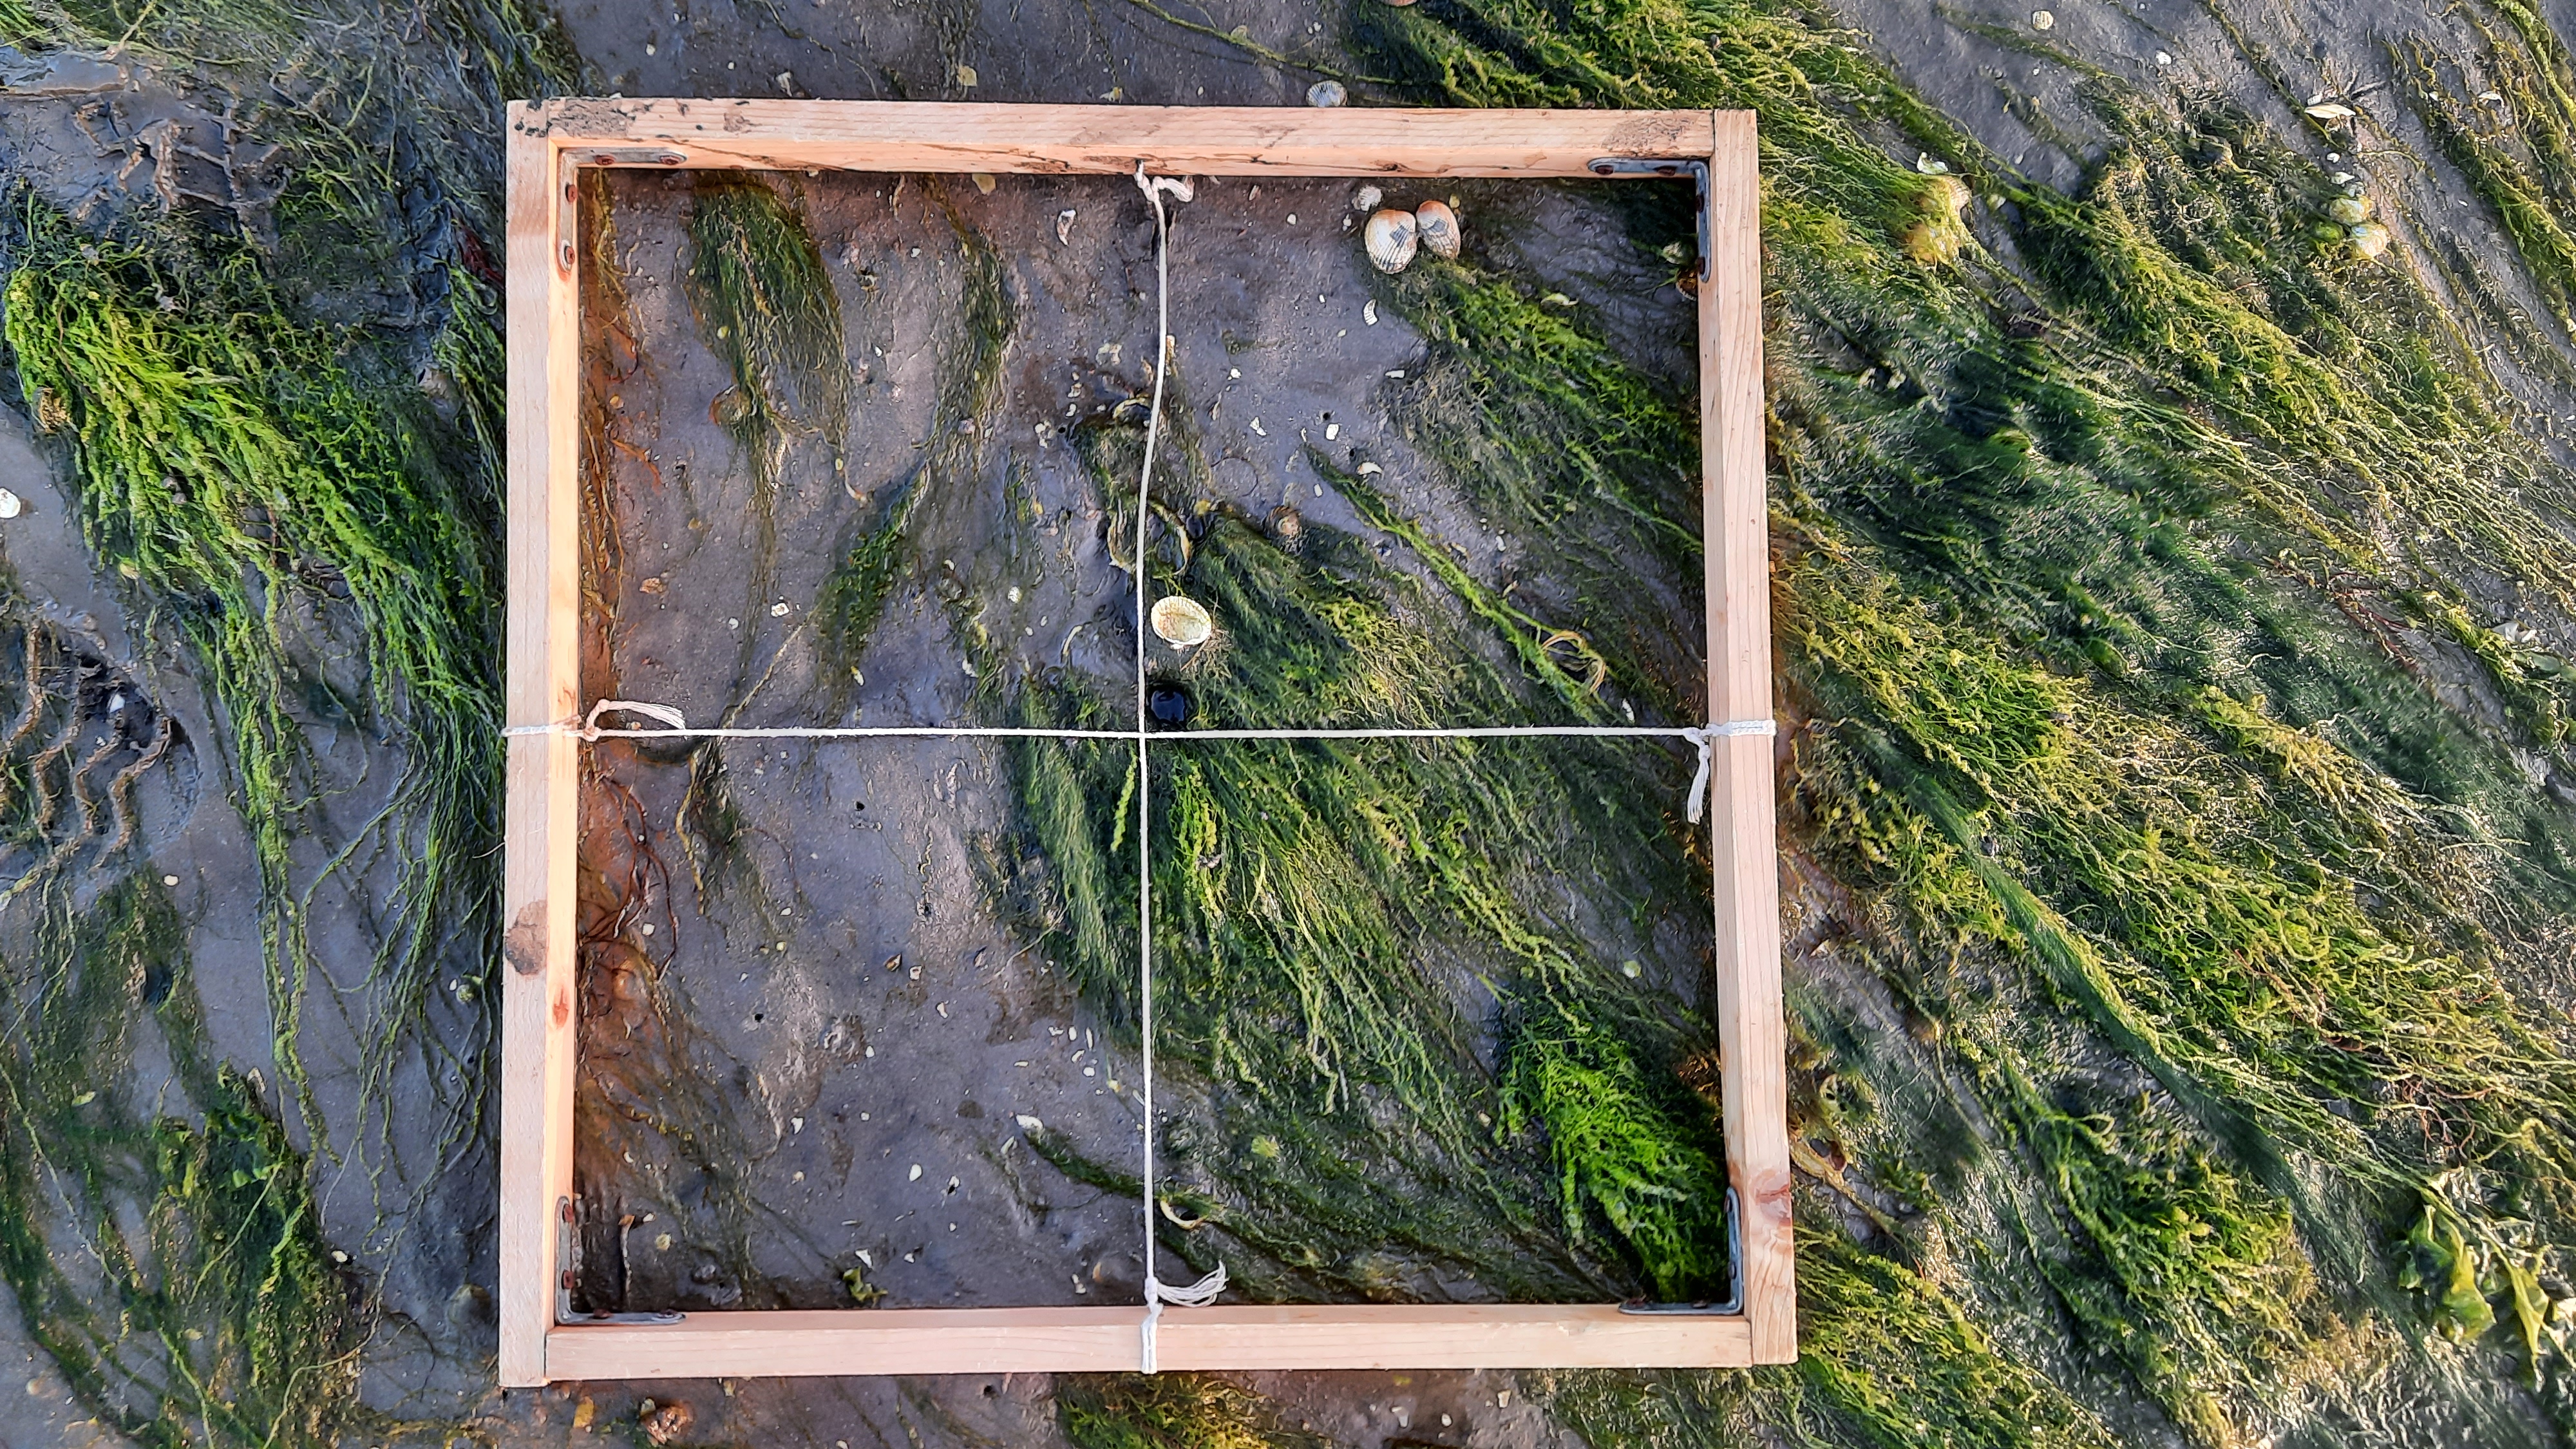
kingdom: Plantae
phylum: Chlorophyta
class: Ulvophyceae
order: Ulvales
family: Ulvaceae
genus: Ulva
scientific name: Ulva
